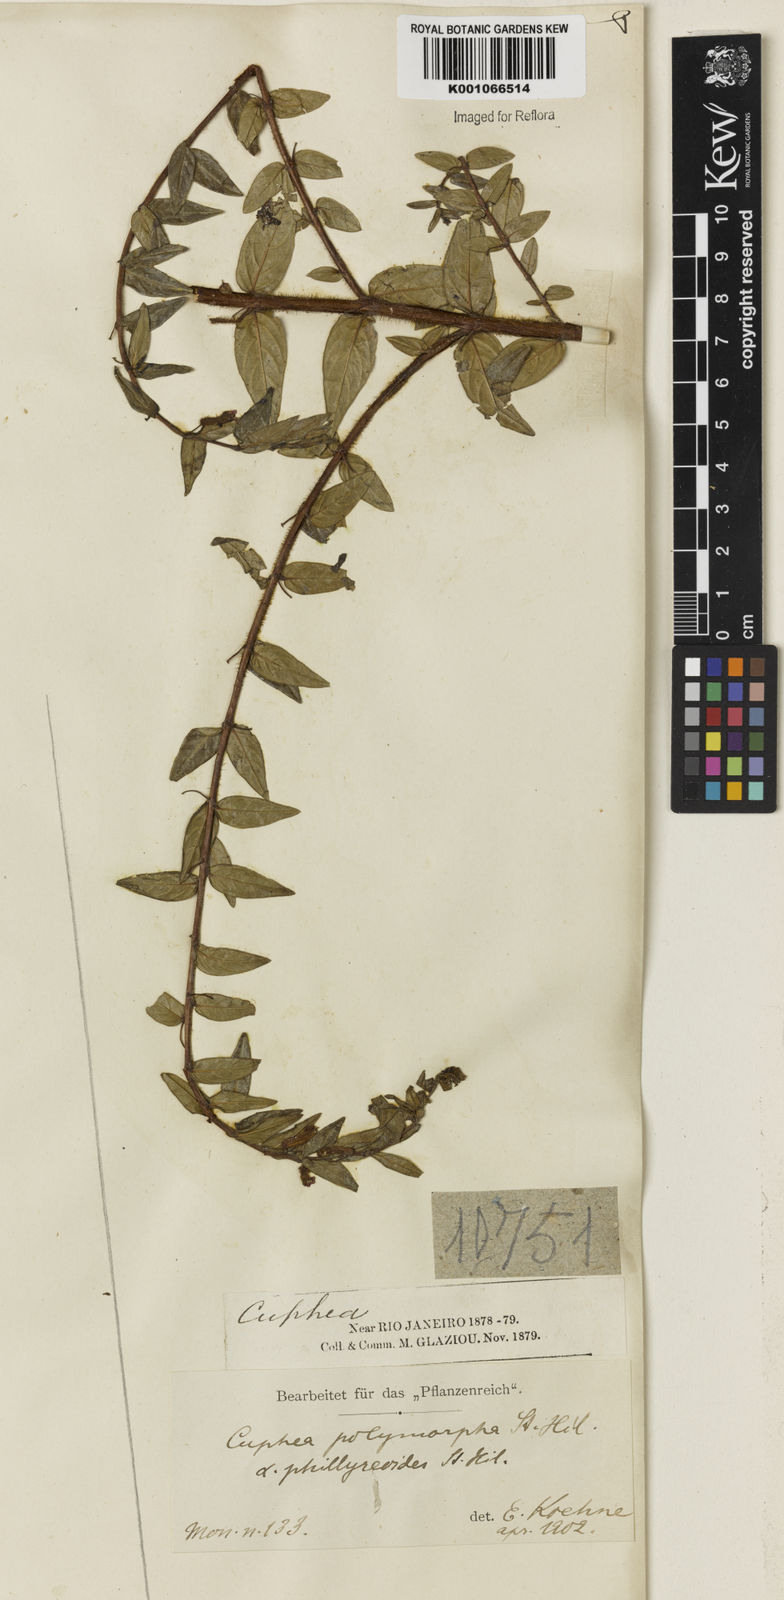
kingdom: Plantae
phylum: Tracheophyta
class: Magnoliopsida
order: Myrtales
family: Lythraceae
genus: Cuphea
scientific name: Cuphea polymorpha
